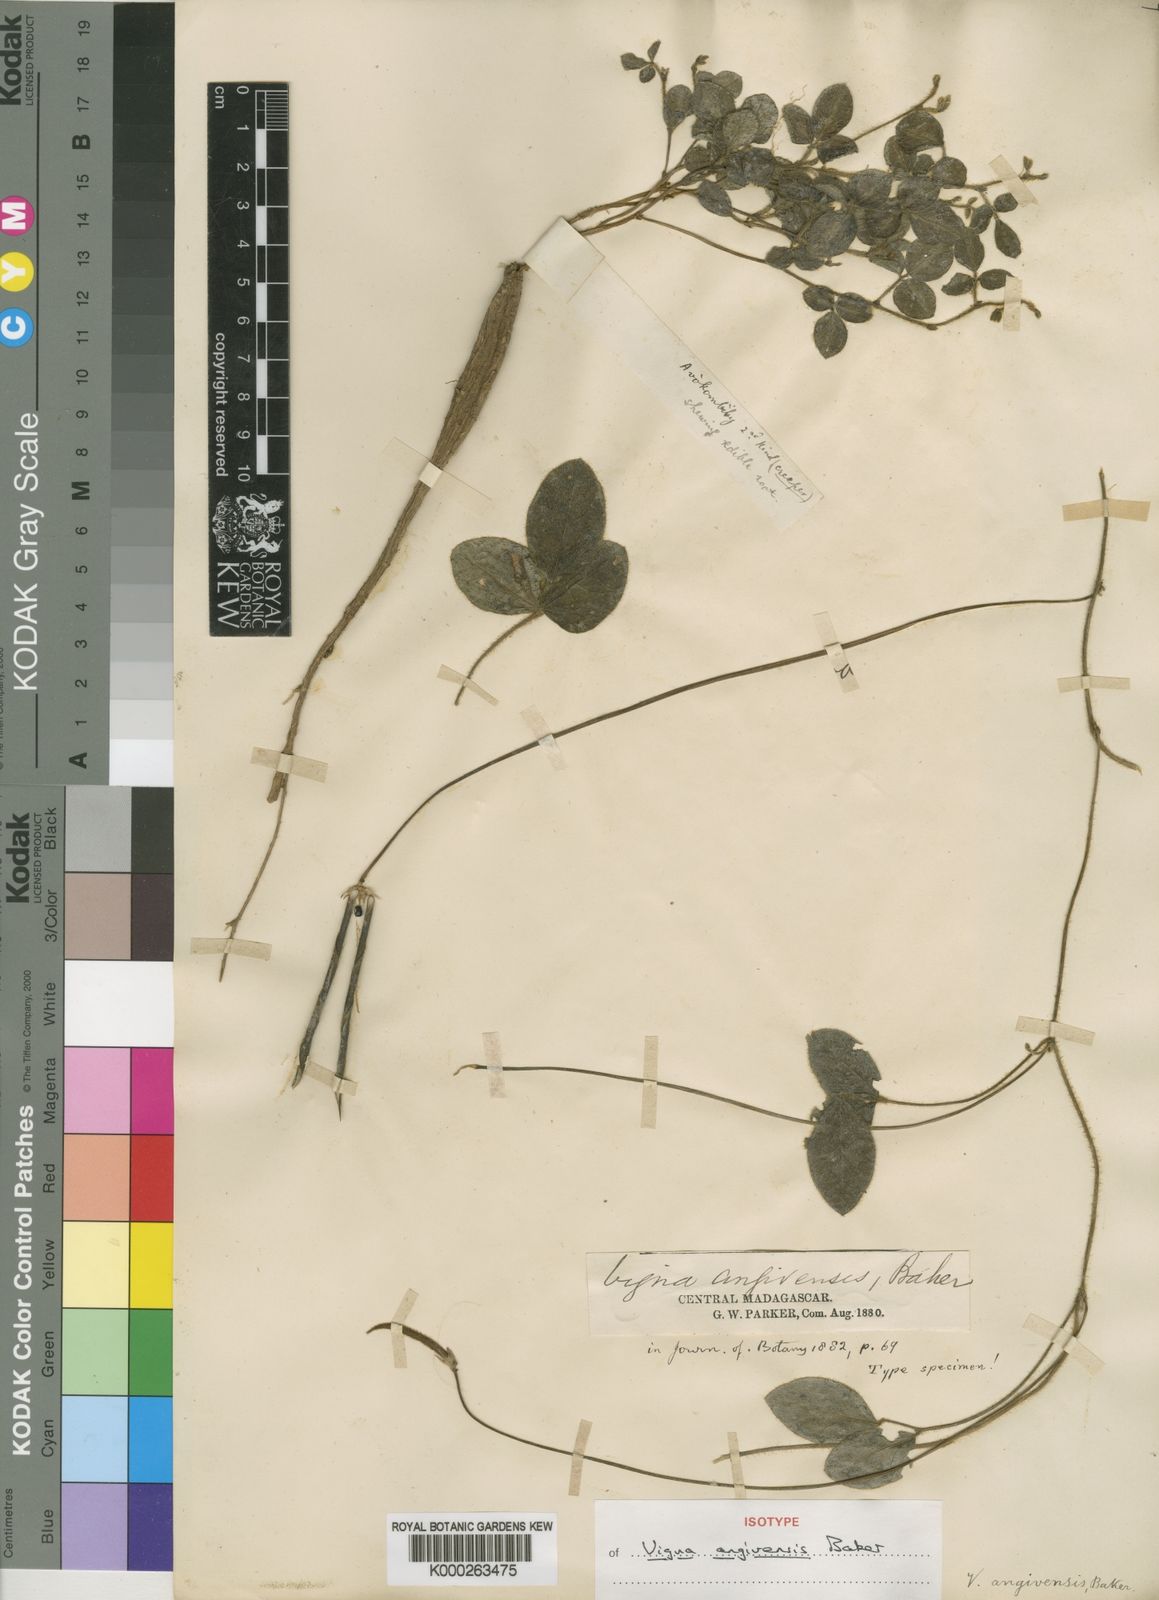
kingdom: Plantae
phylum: Tracheophyta
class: Magnoliopsida
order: Fabales
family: Fabaceae
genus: Vigna
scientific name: Vigna angivensis
